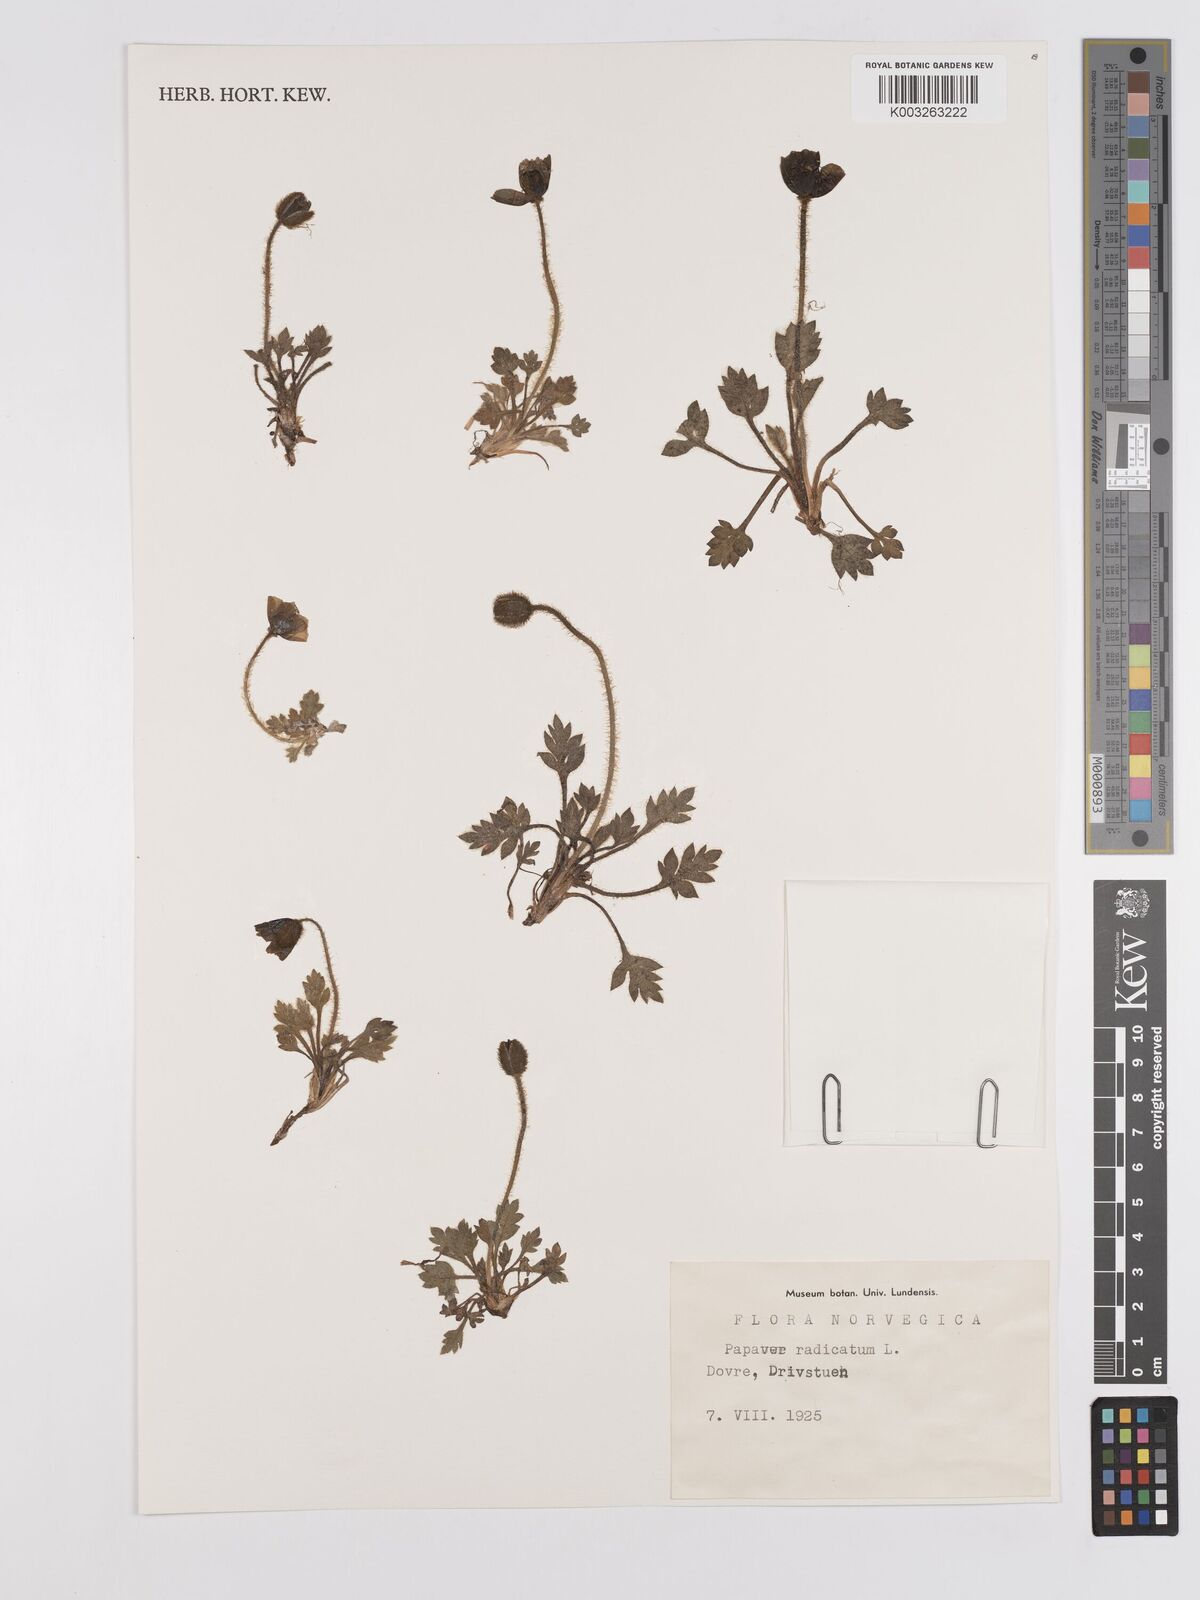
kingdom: Plantae
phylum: Tracheophyta
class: Magnoliopsida
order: Ranunculales
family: Papaveraceae
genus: Papaver
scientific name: Papaver radicatum
